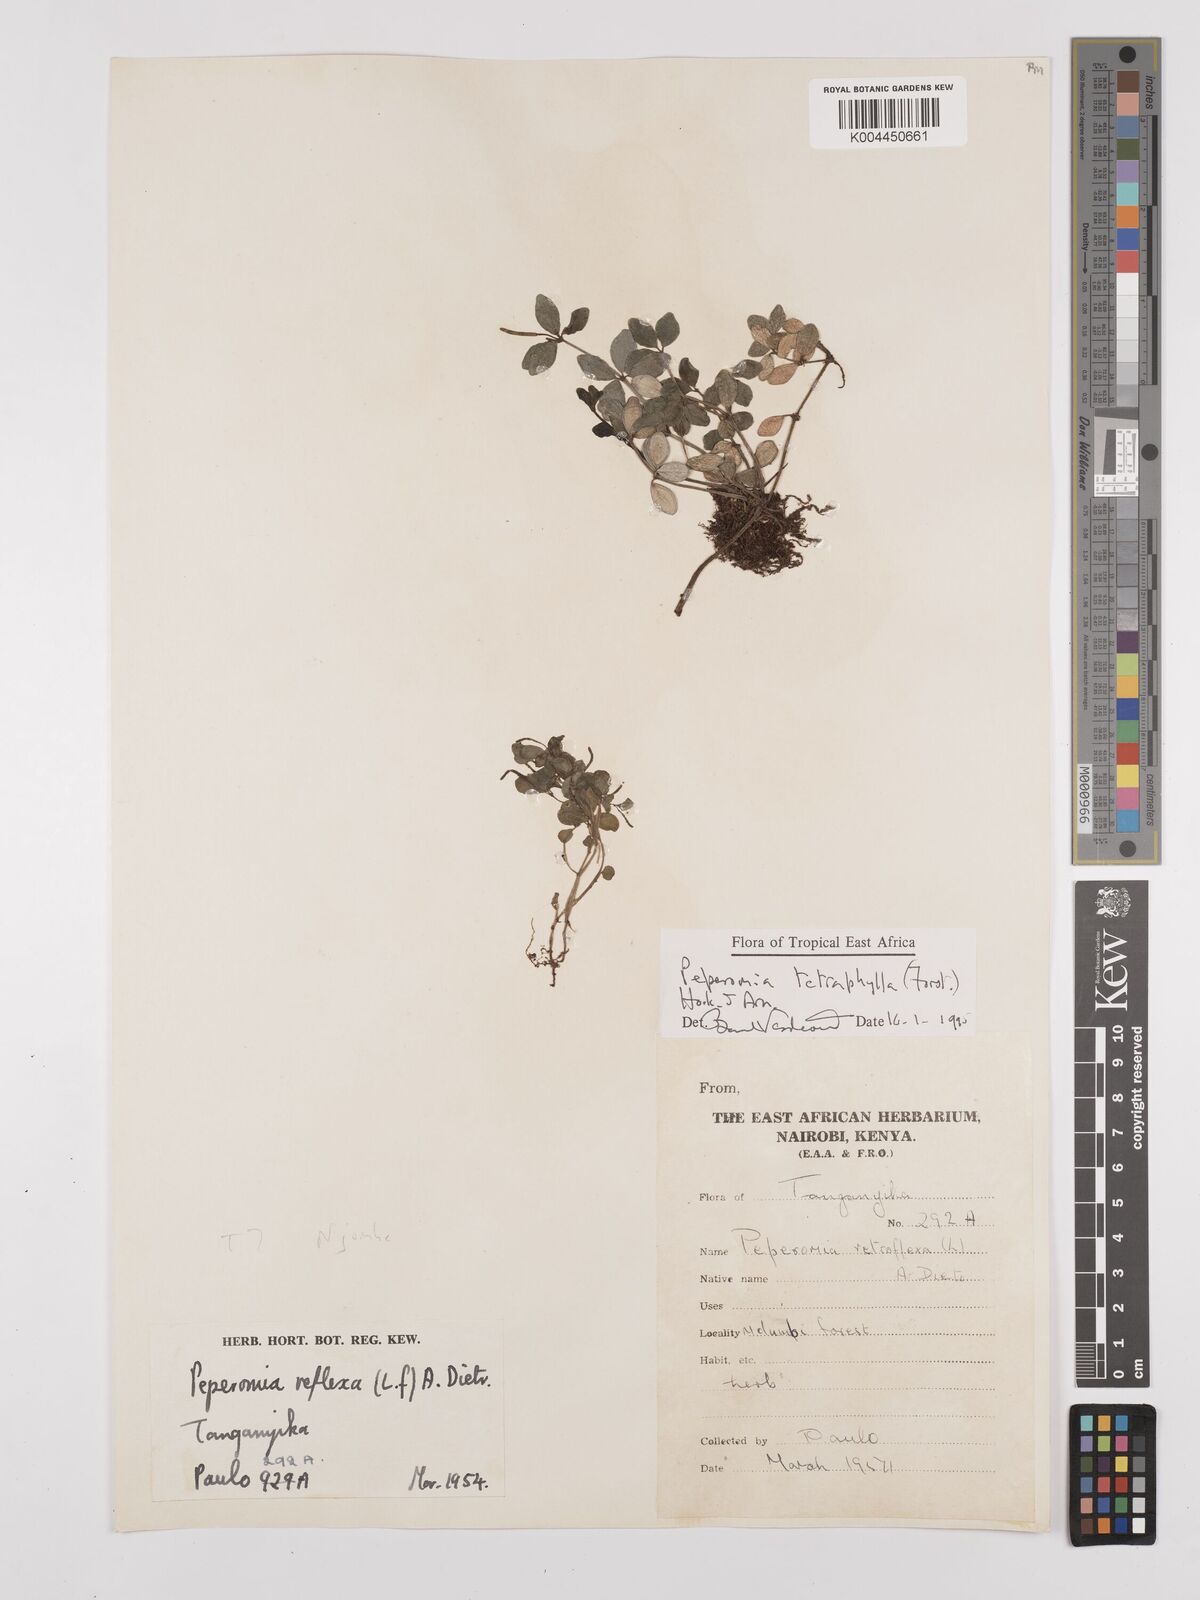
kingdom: Plantae
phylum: Tracheophyta
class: Magnoliopsida
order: Piperales
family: Piperaceae
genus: Peperomia
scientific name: Peperomia tetraphylla
